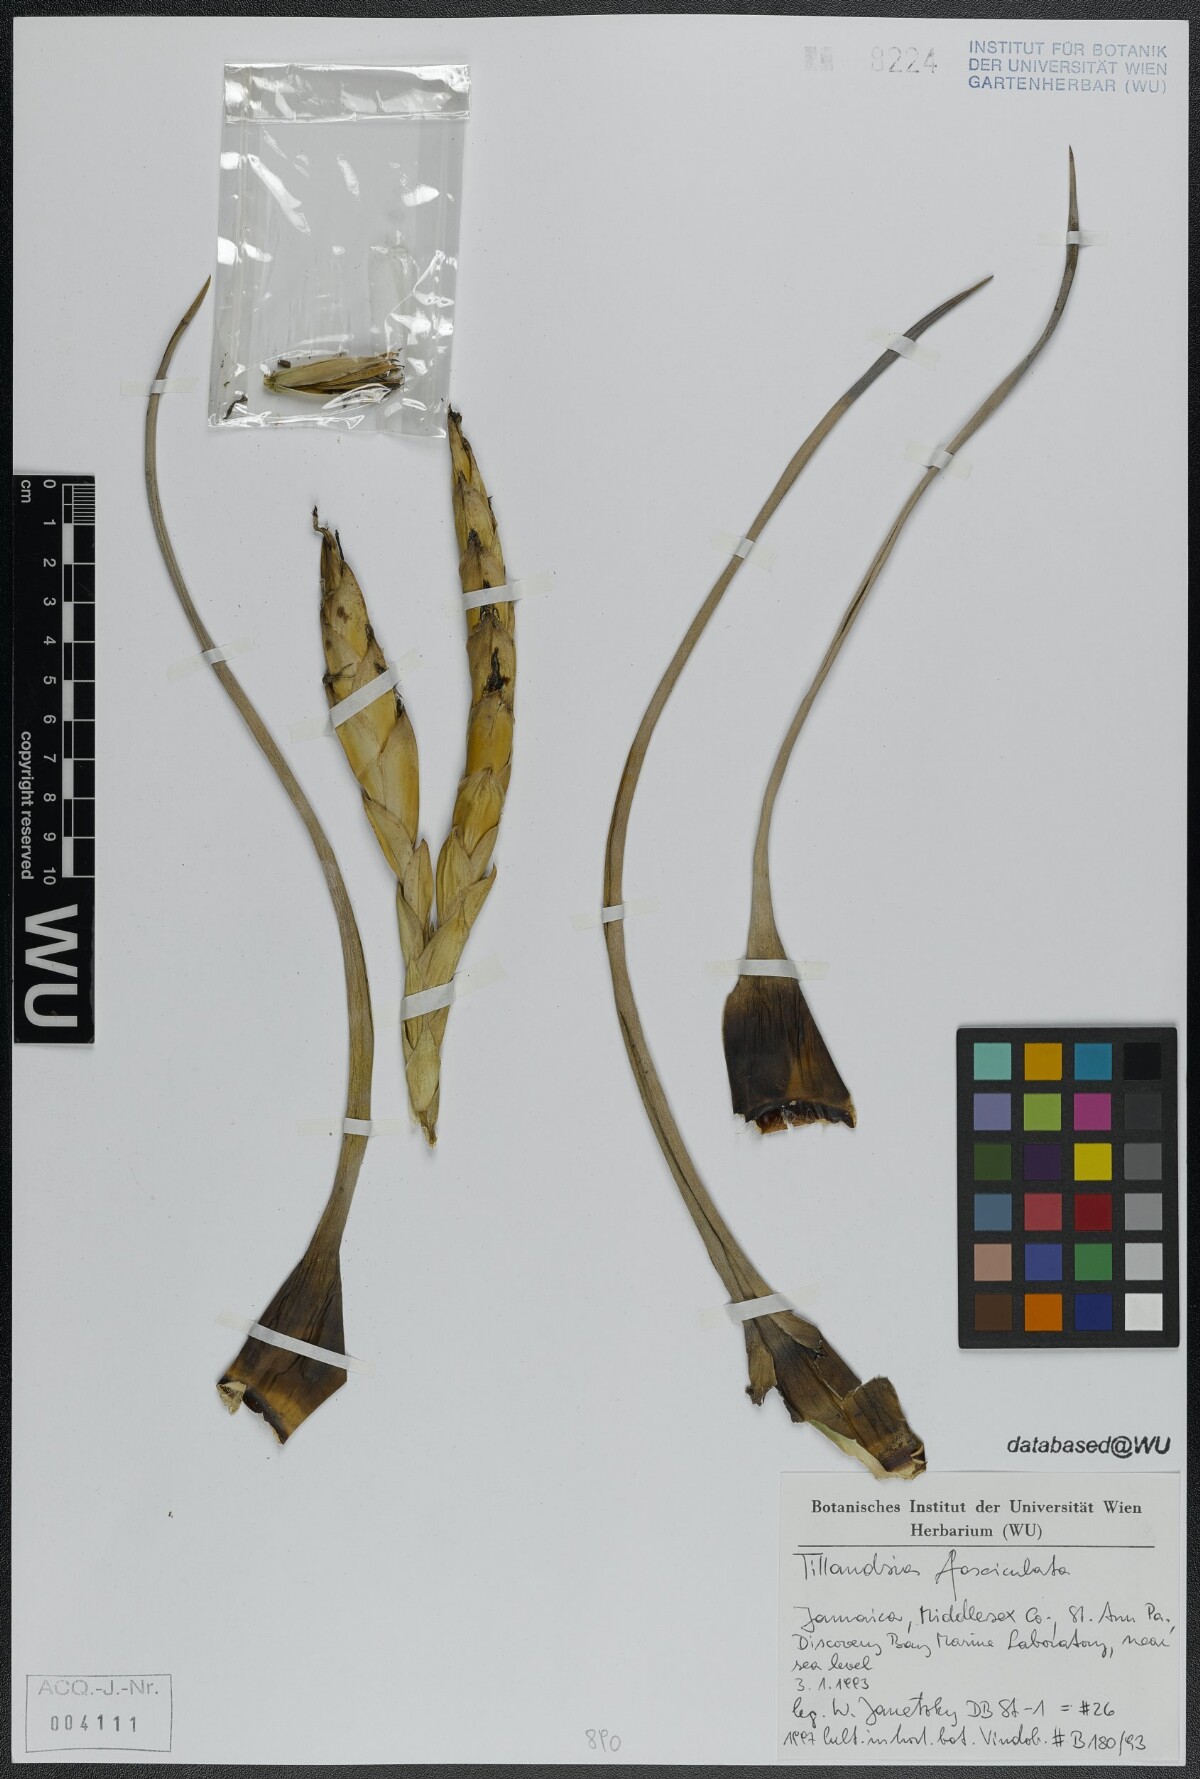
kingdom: Plantae
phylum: Tracheophyta
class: Liliopsida
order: Poales
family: Bromeliaceae
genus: Tillandsia
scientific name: Tillandsia fasciculata
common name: Giant airplant
